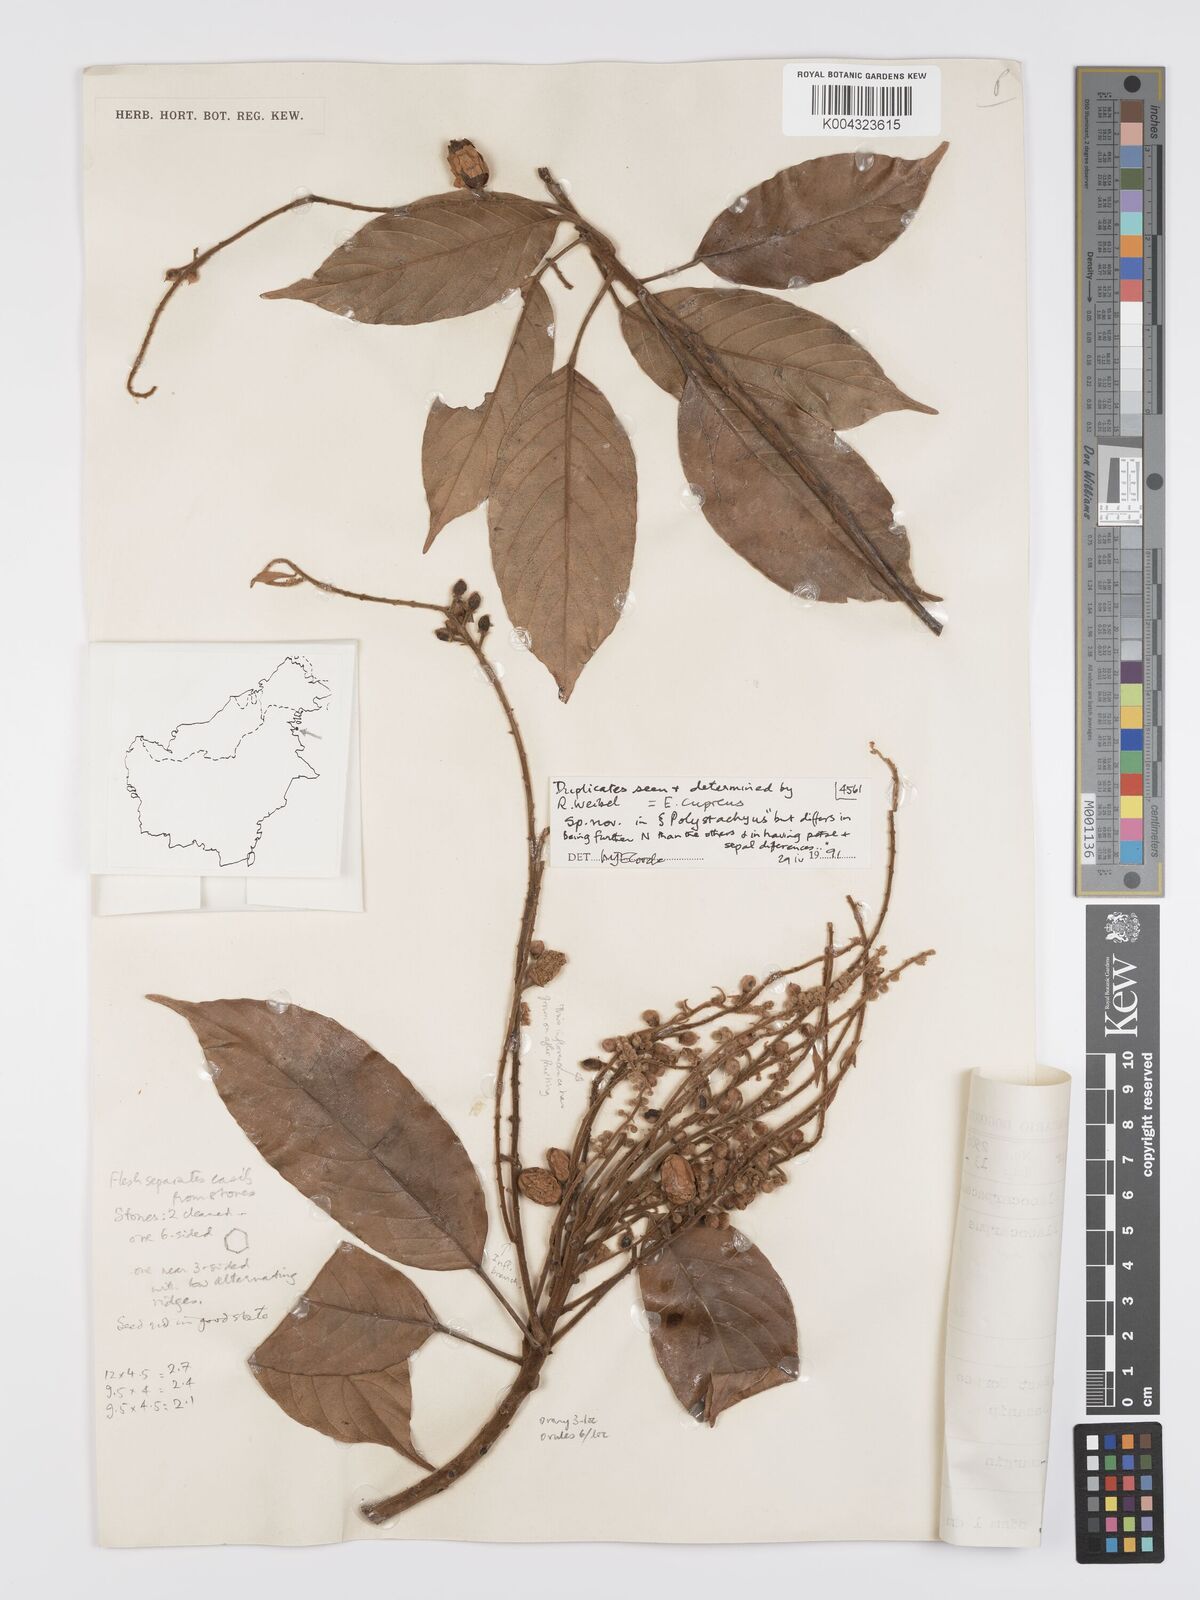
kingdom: Plantae
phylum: Tracheophyta
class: Magnoliopsida
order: Oxalidales
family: Elaeocarpaceae
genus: Elaeocarpus
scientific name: Elaeocarpus cupreus
